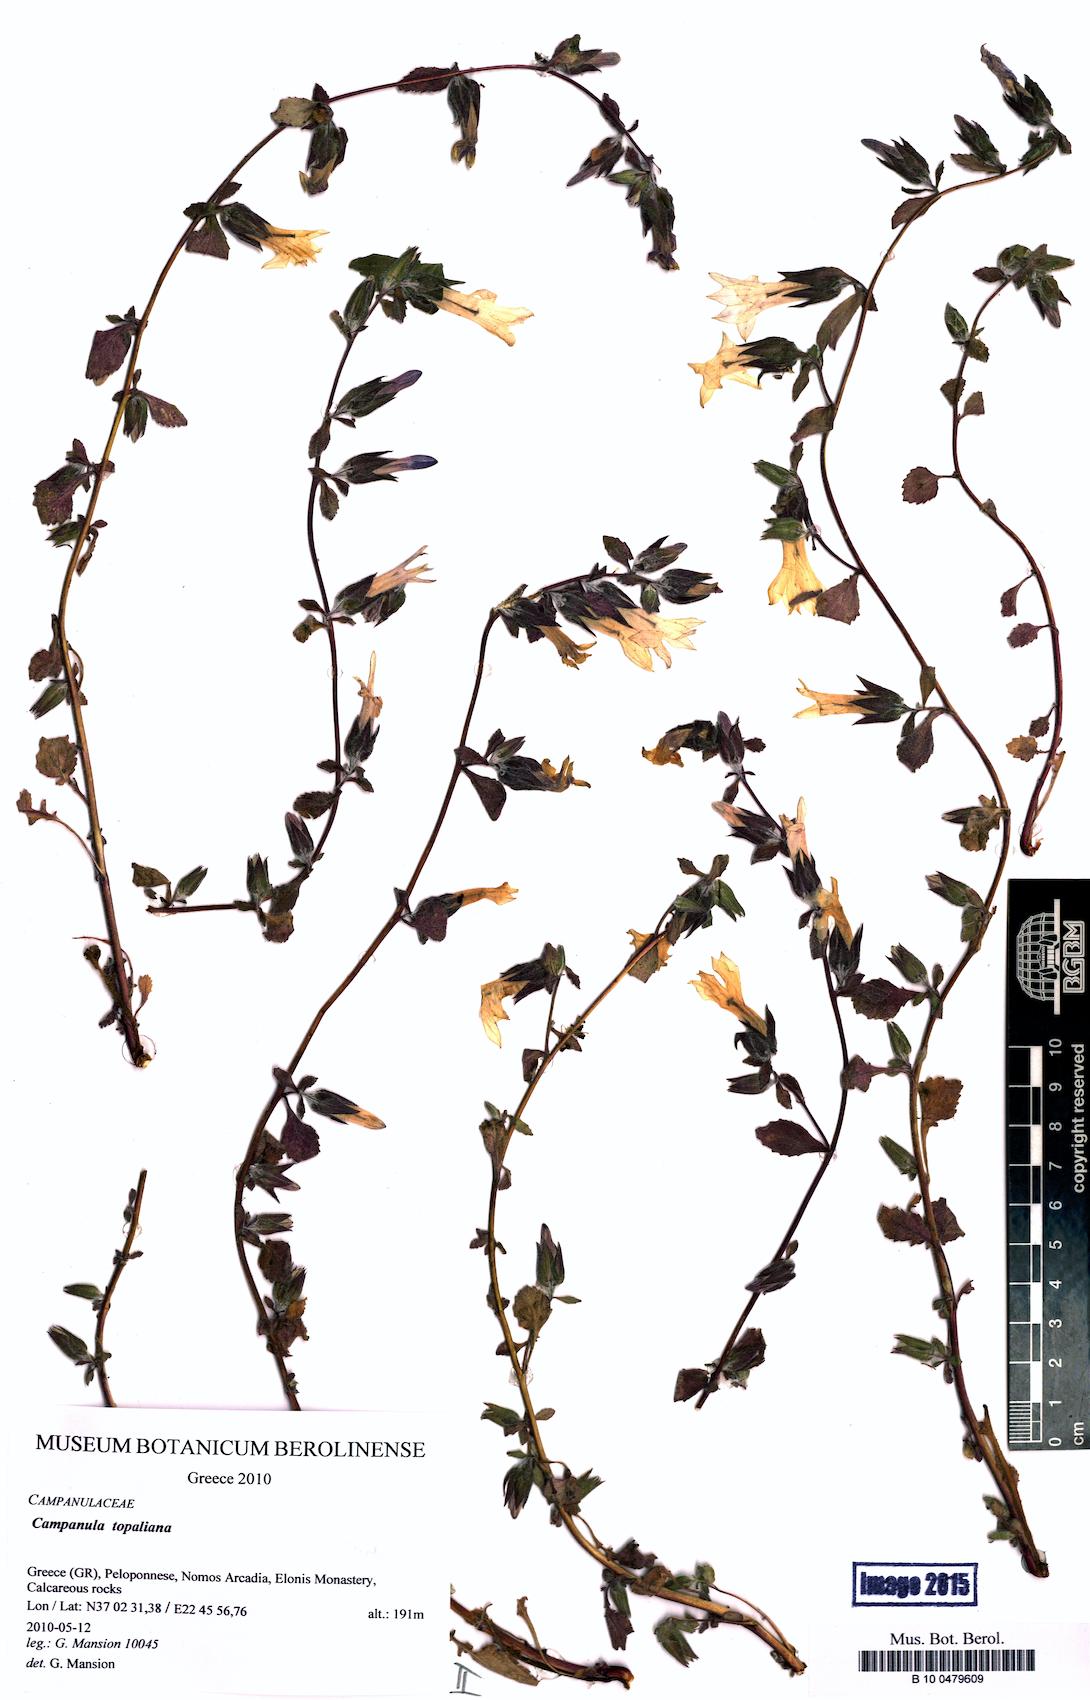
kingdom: Plantae
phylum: Tracheophyta
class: Magnoliopsida
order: Asterales
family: Campanulaceae
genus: Campanula
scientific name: Campanula topaliana
